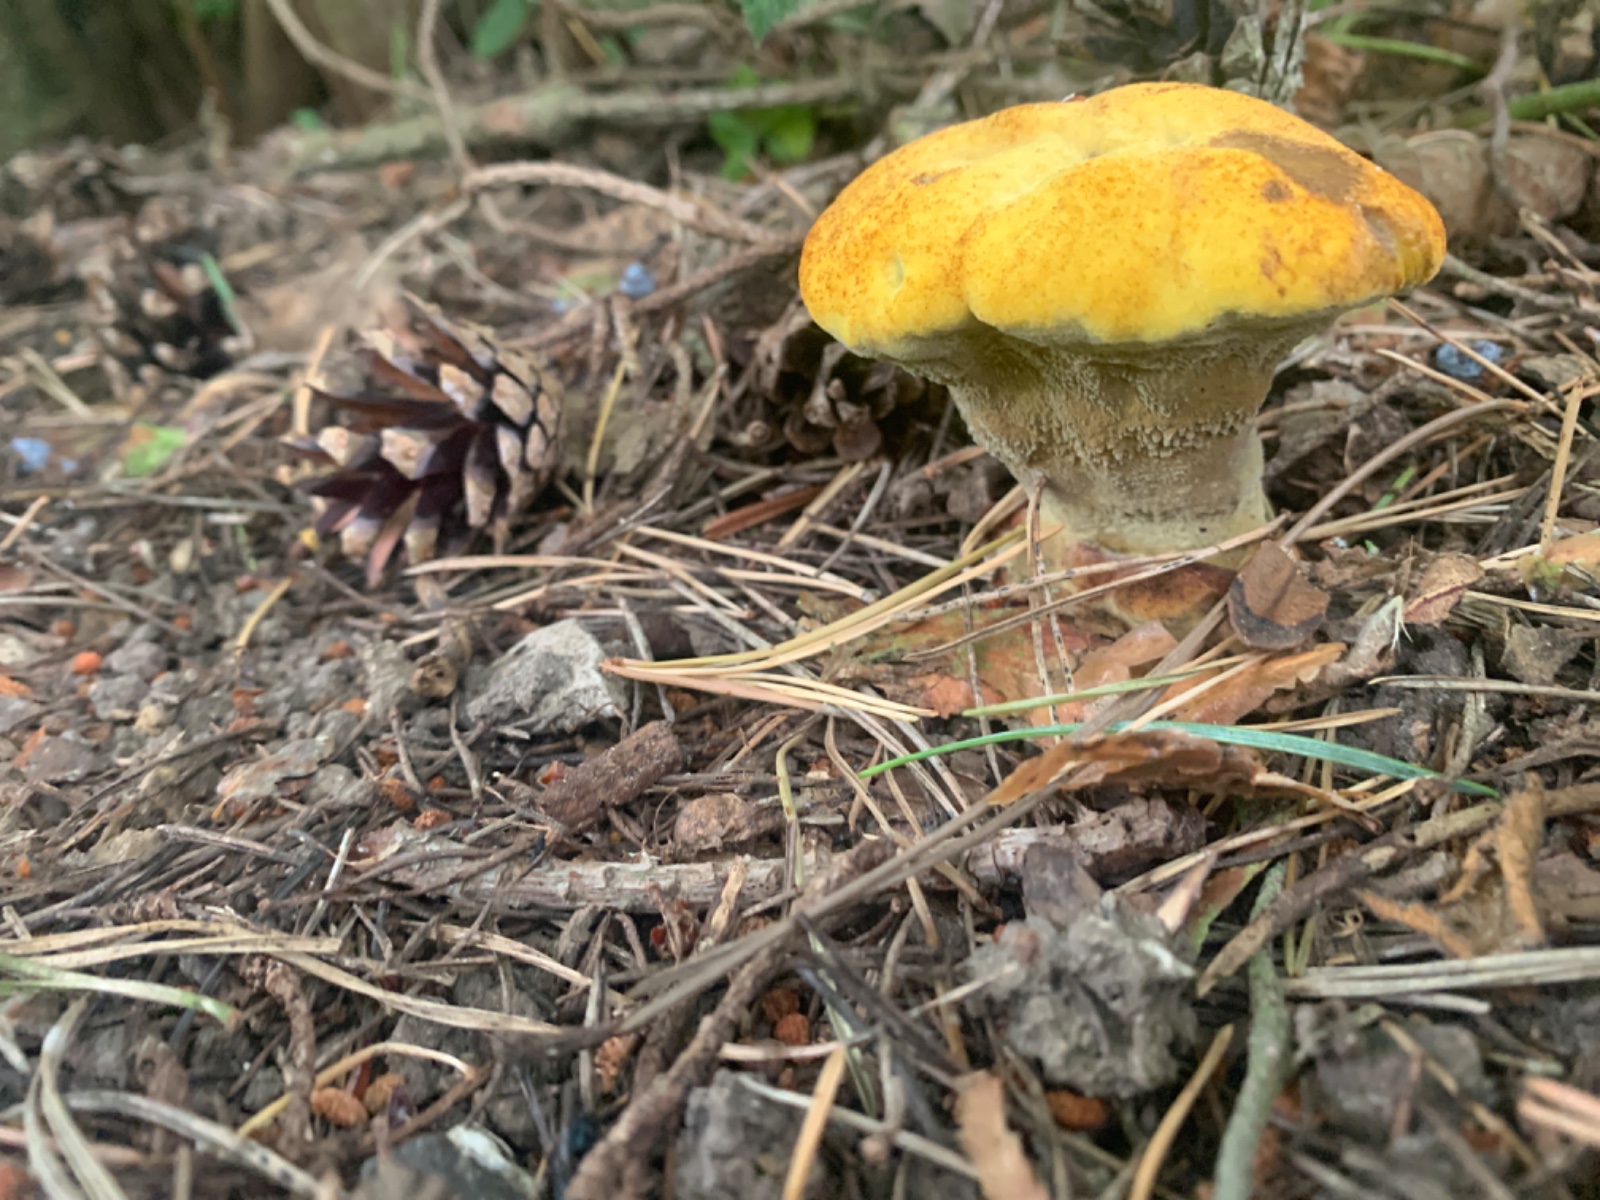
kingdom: Fungi
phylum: Basidiomycota
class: Agaricomycetes
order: Polyporales
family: Laetiporaceae
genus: Phaeolus
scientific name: Phaeolus schweinitzii
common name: brunporesvamp
